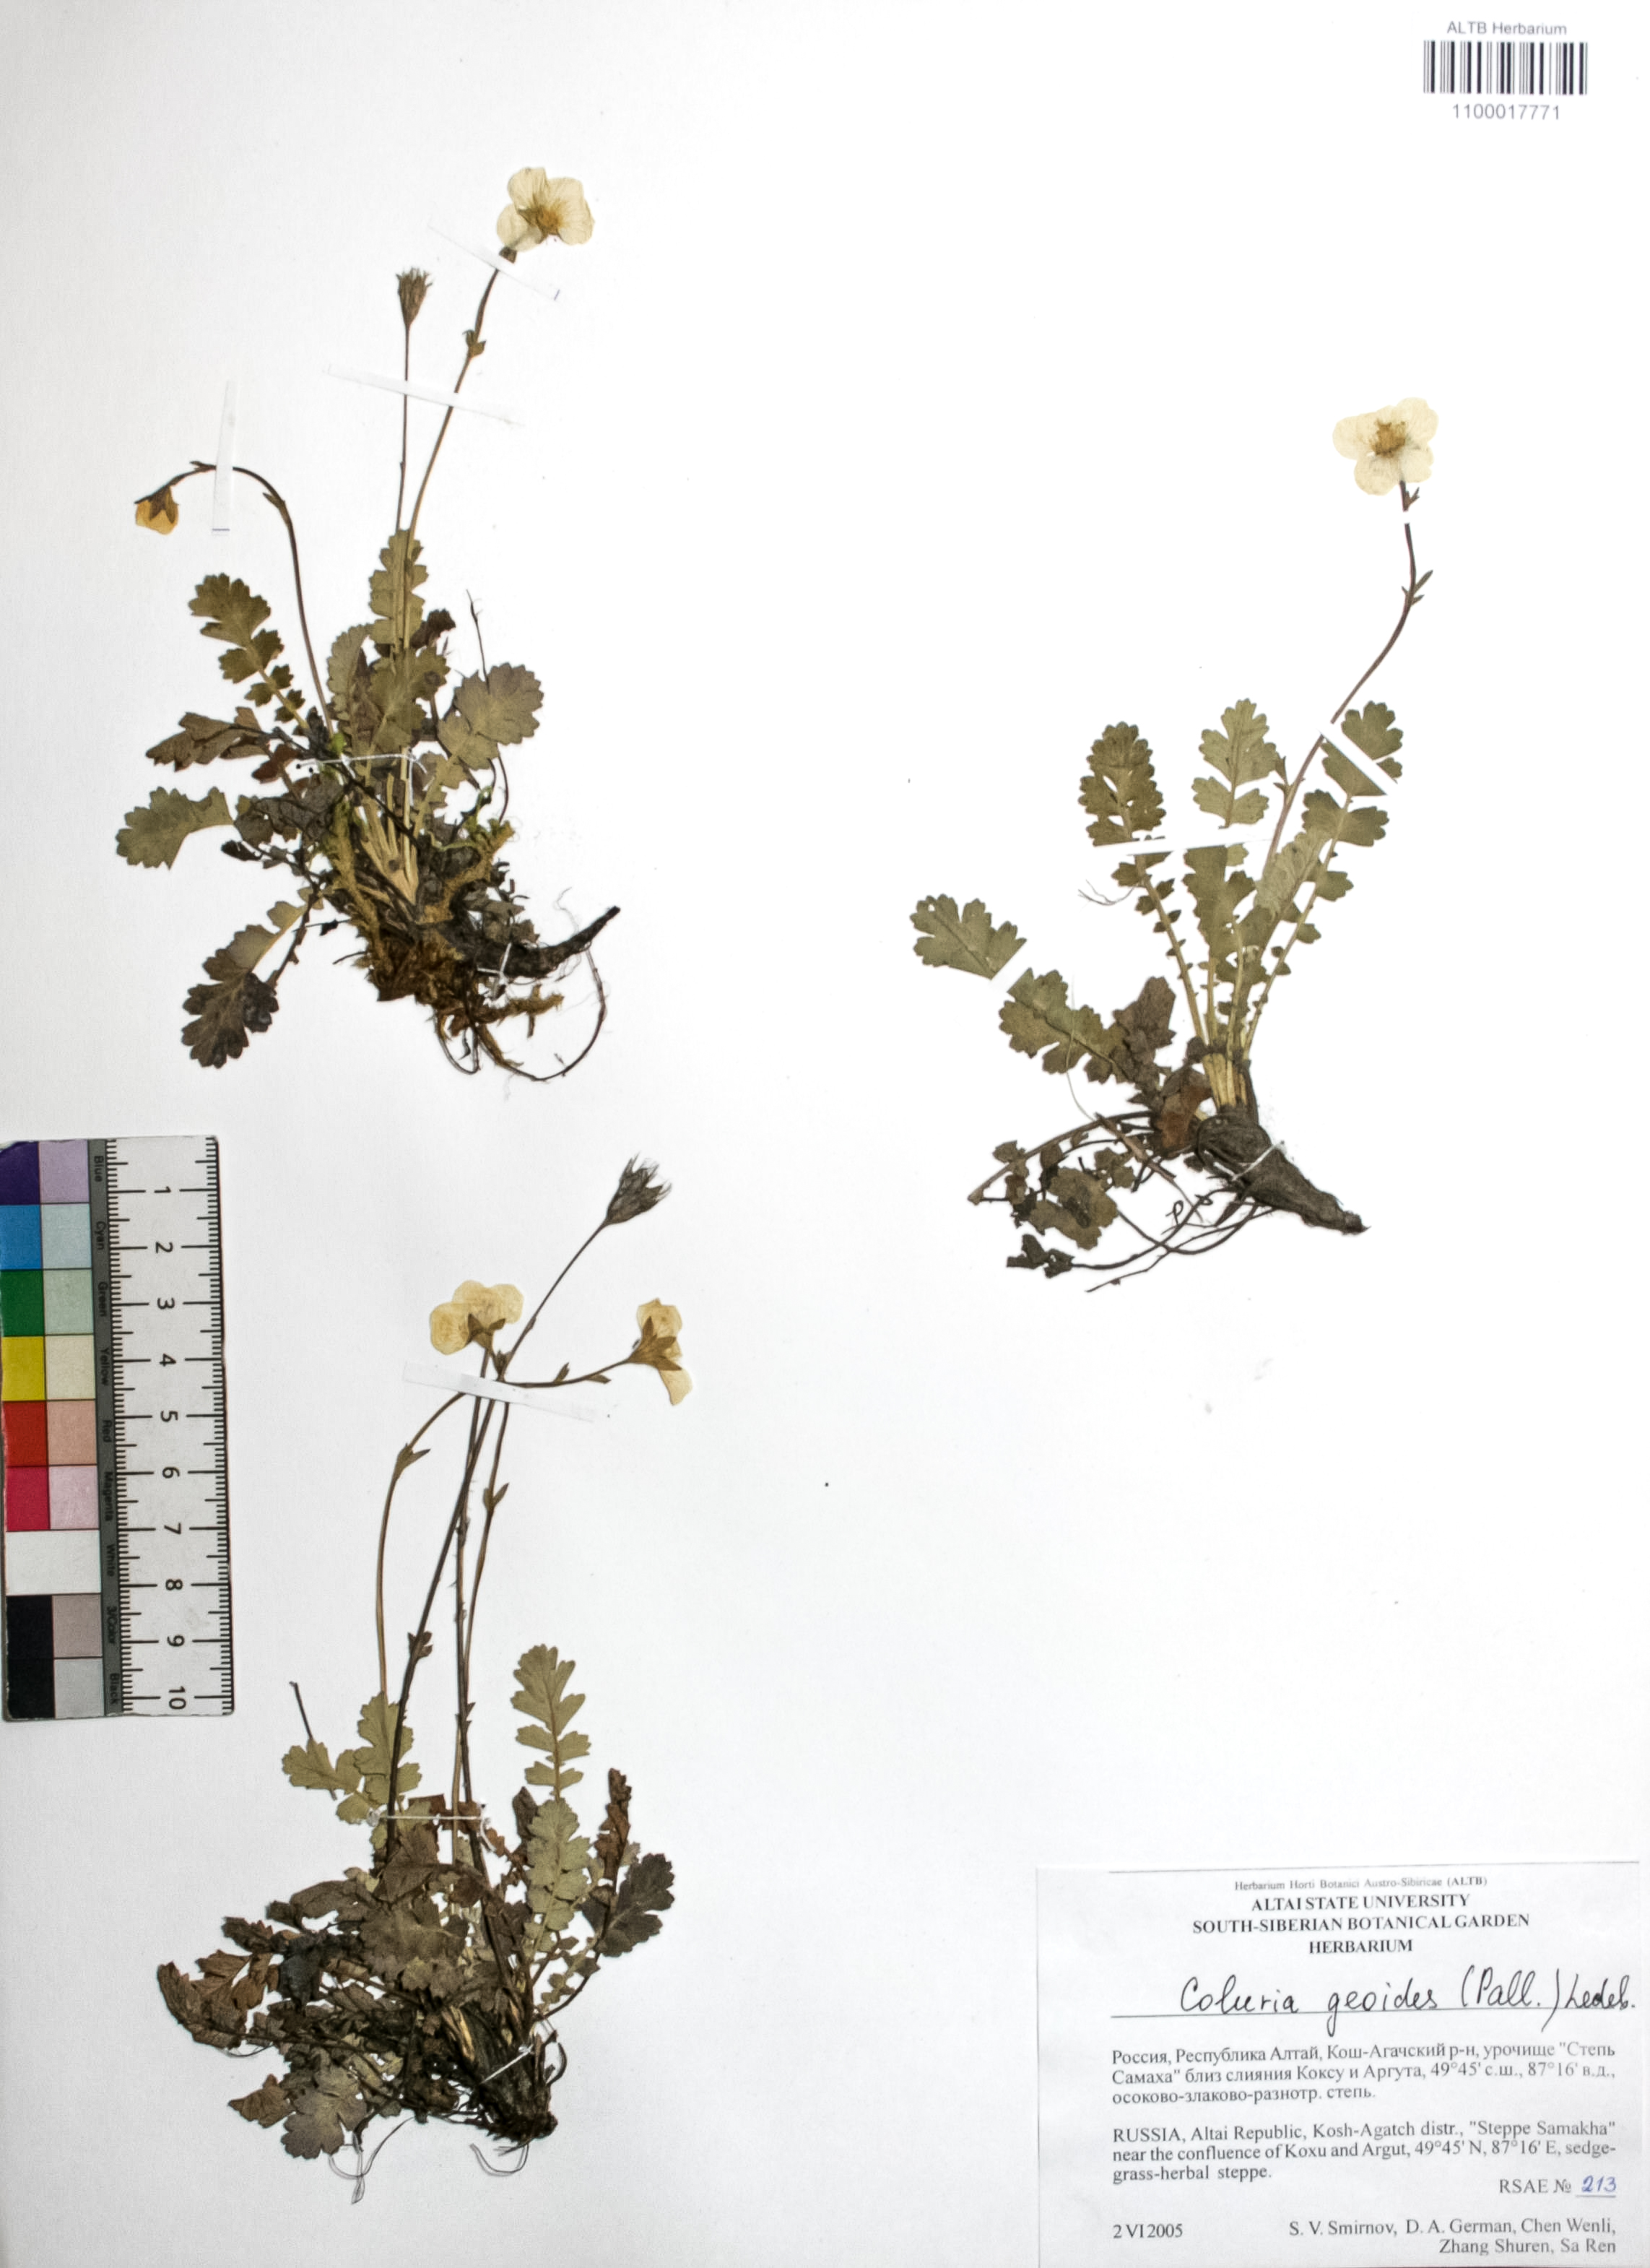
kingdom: Plantae
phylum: Tracheophyta
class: Magnoliopsida
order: Rosales
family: Rosaceae
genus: Geum
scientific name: Geum geoides
